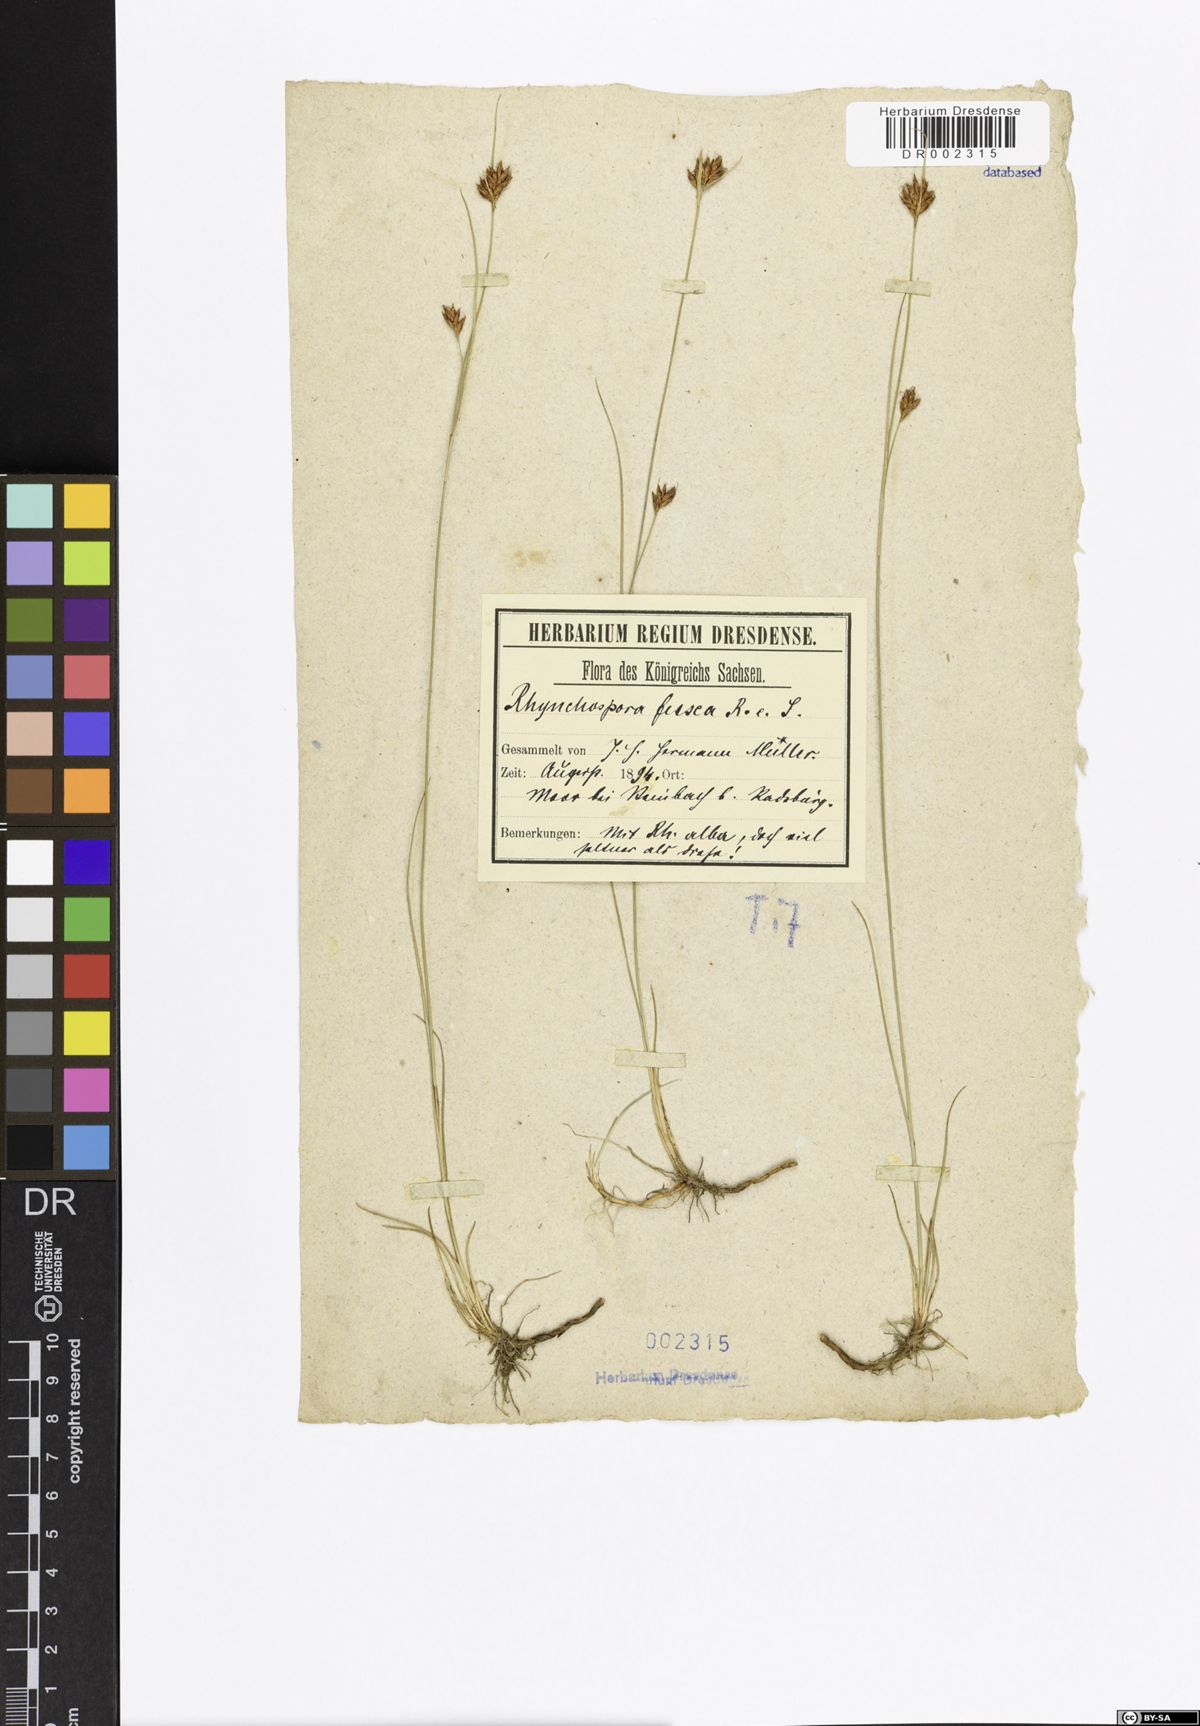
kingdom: Plantae
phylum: Tracheophyta
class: Liliopsida
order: Poales
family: Cyperaceae
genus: Rhynchospora
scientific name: Rhynchospora fusca
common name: Brown beak-sedge
